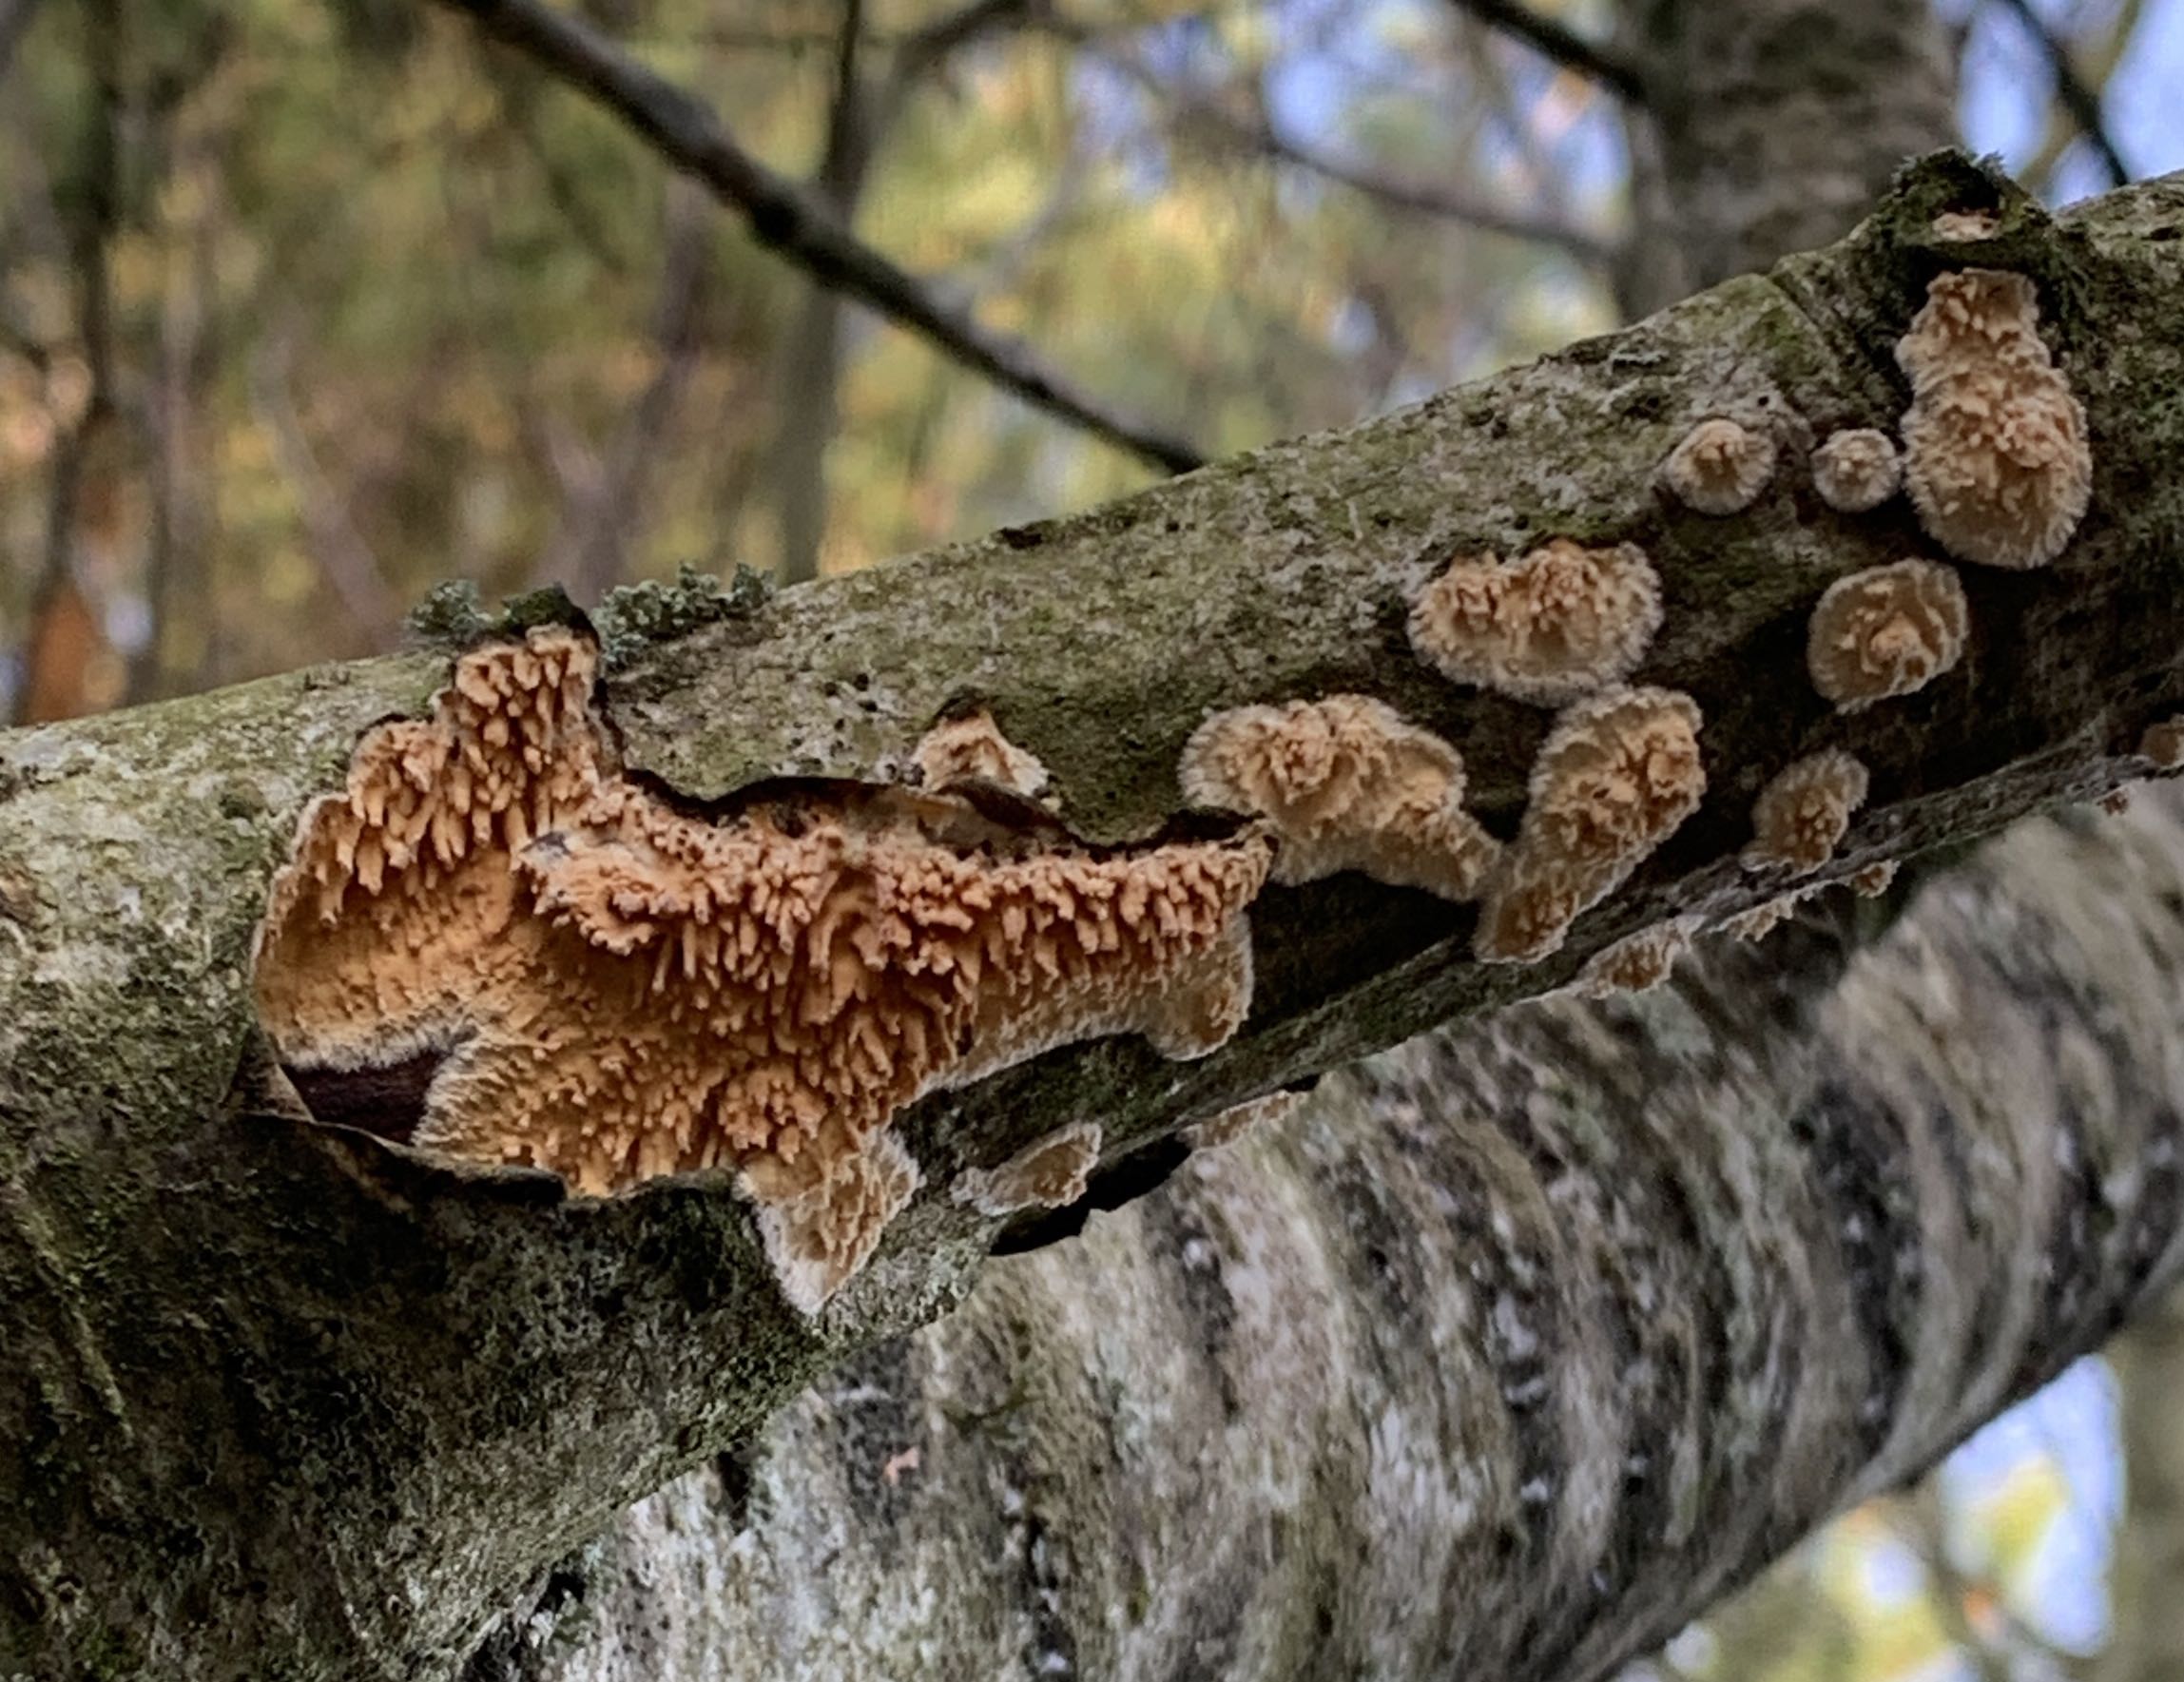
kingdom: Fungi
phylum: Basidiomycota
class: Agaricomycetes
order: Hymenochaetales
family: Schizoporaceae
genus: Xylodon
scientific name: Xylodon radula
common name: grovtandet kalkskind
